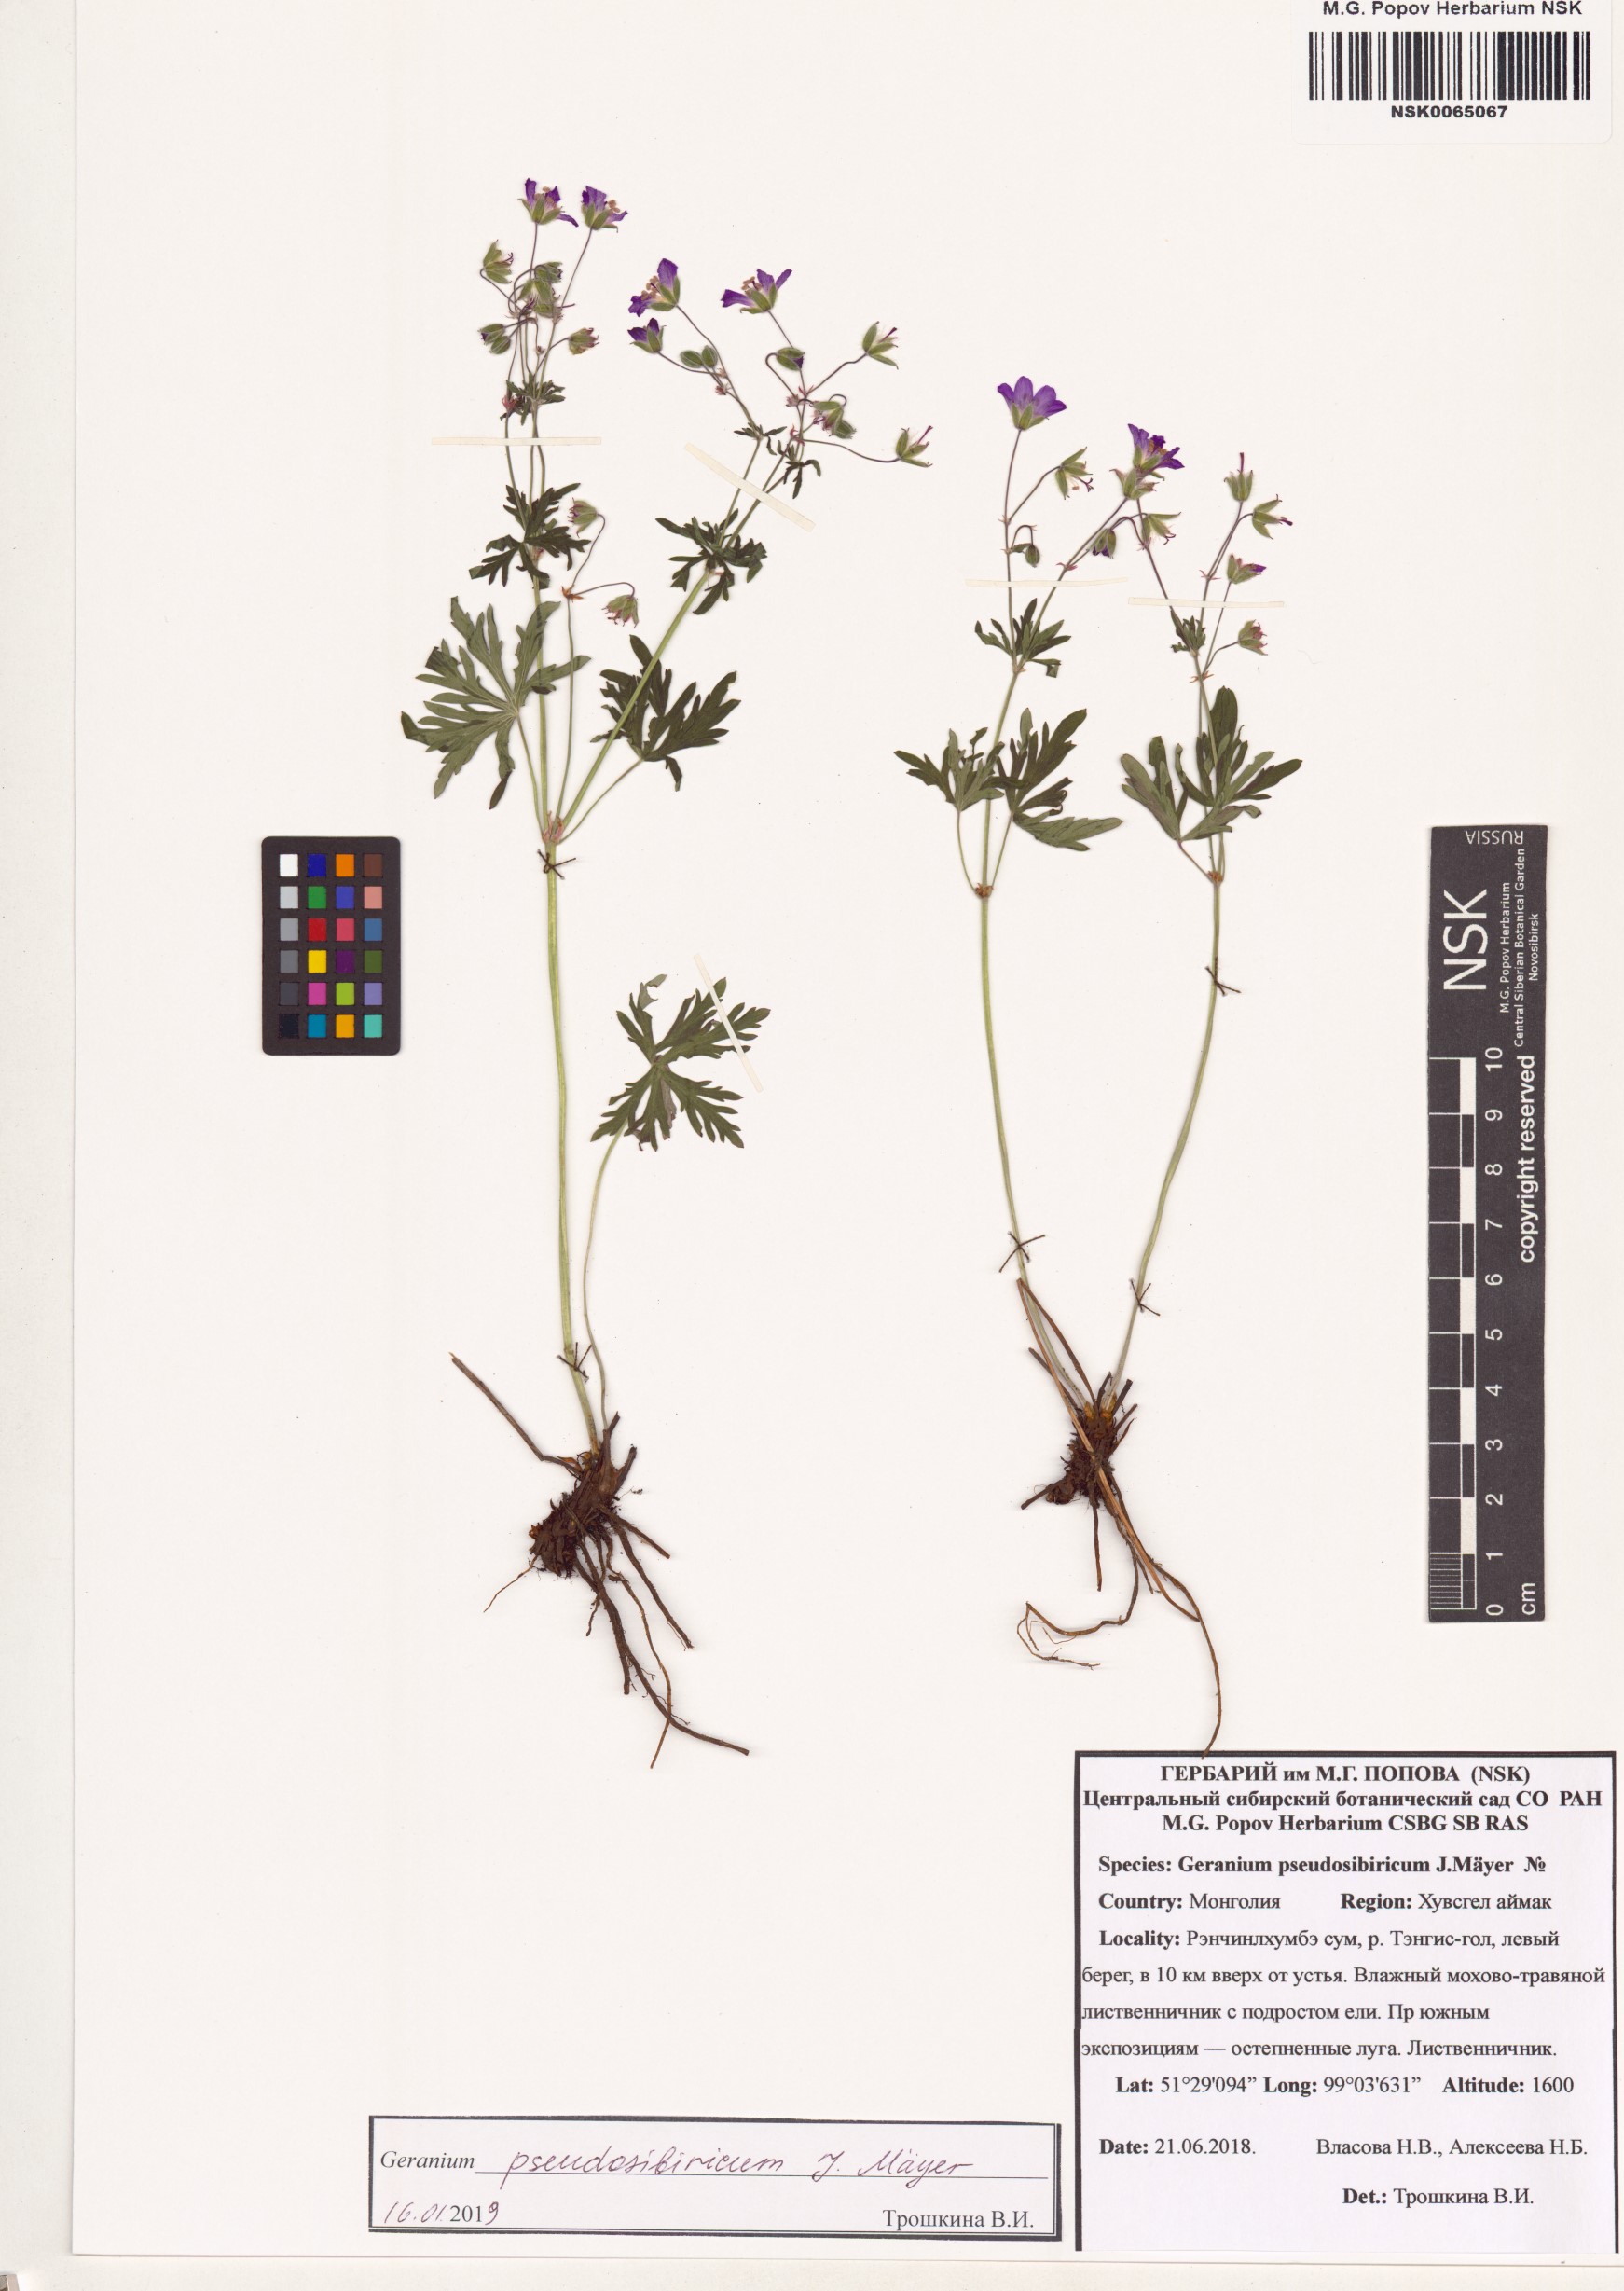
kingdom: Plantae
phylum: Tracheophyta
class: Magnoliopsida
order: Geraniales
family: Geraniaceae
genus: Geranium
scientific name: Geranium pseudosibiricum
